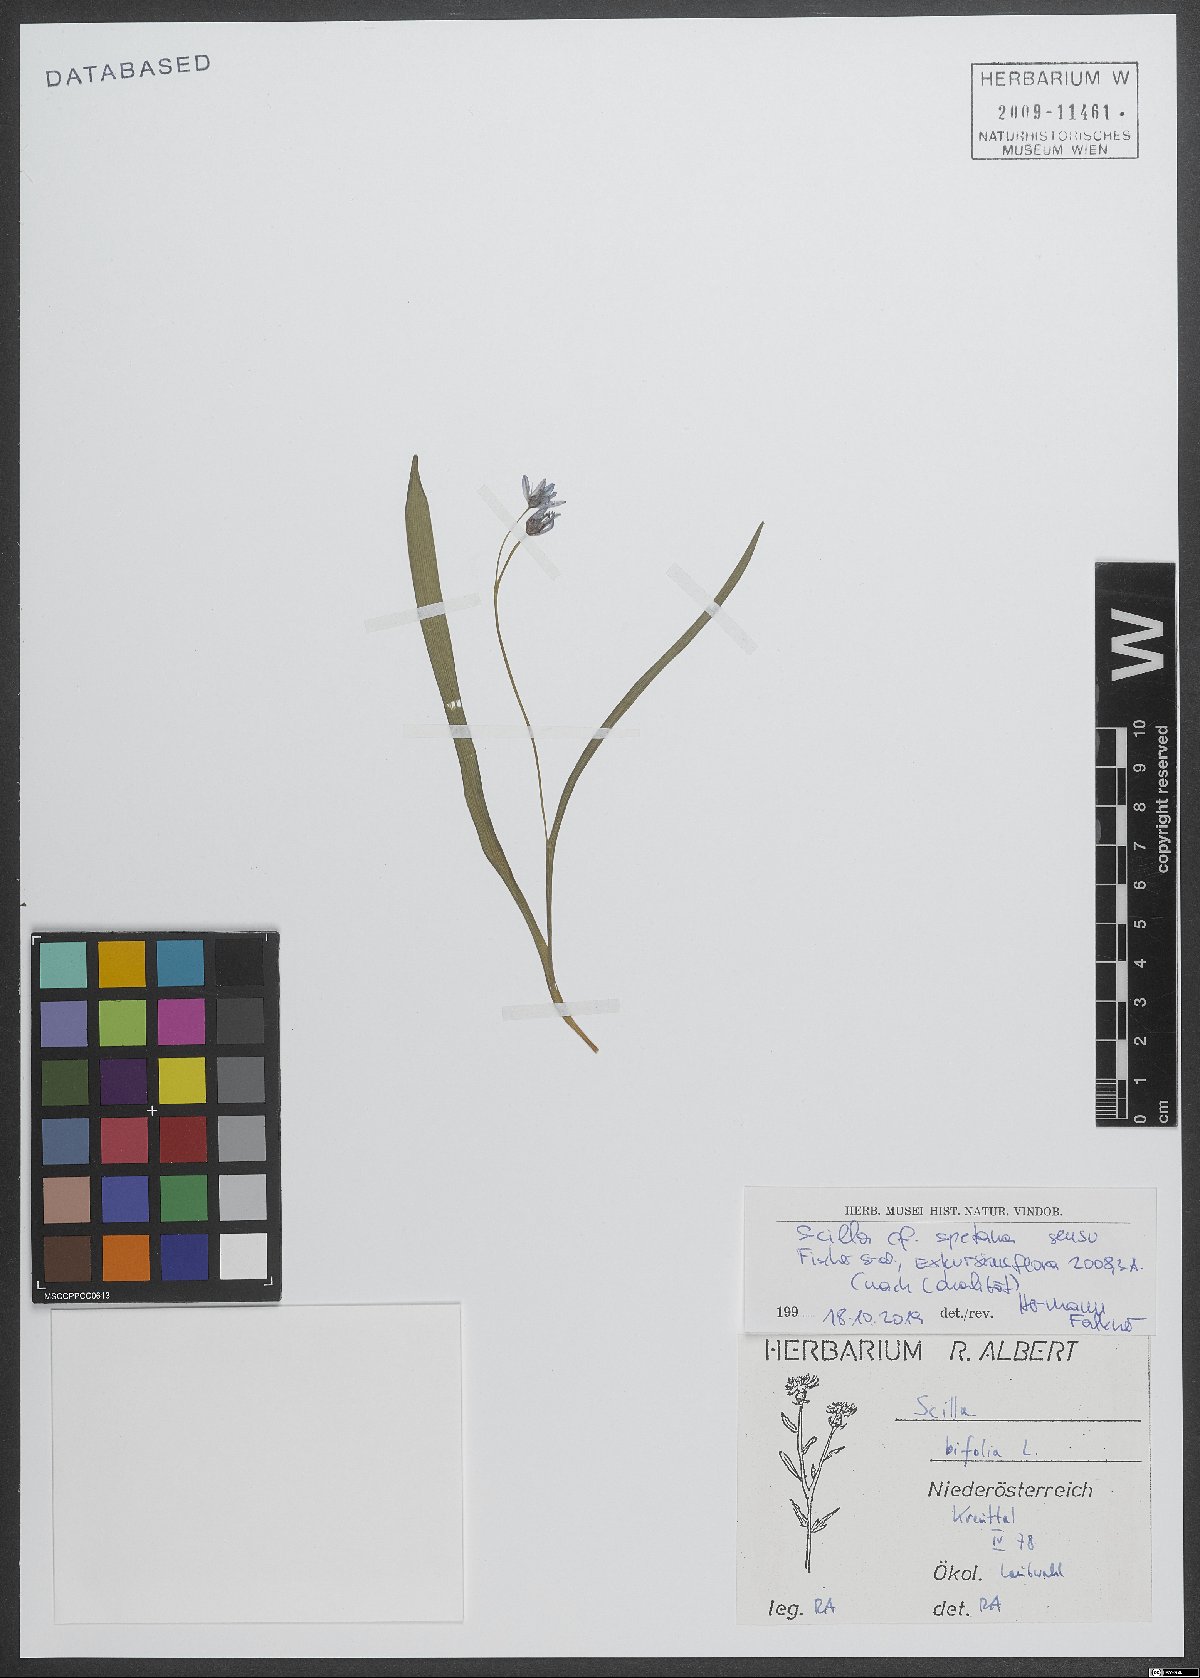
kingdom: Plantae
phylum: Tracheophyta
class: Liliopsida
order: Asparagales
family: Asparagaceae
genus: Scilla
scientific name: Scilla bifolia
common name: Alpine squill
